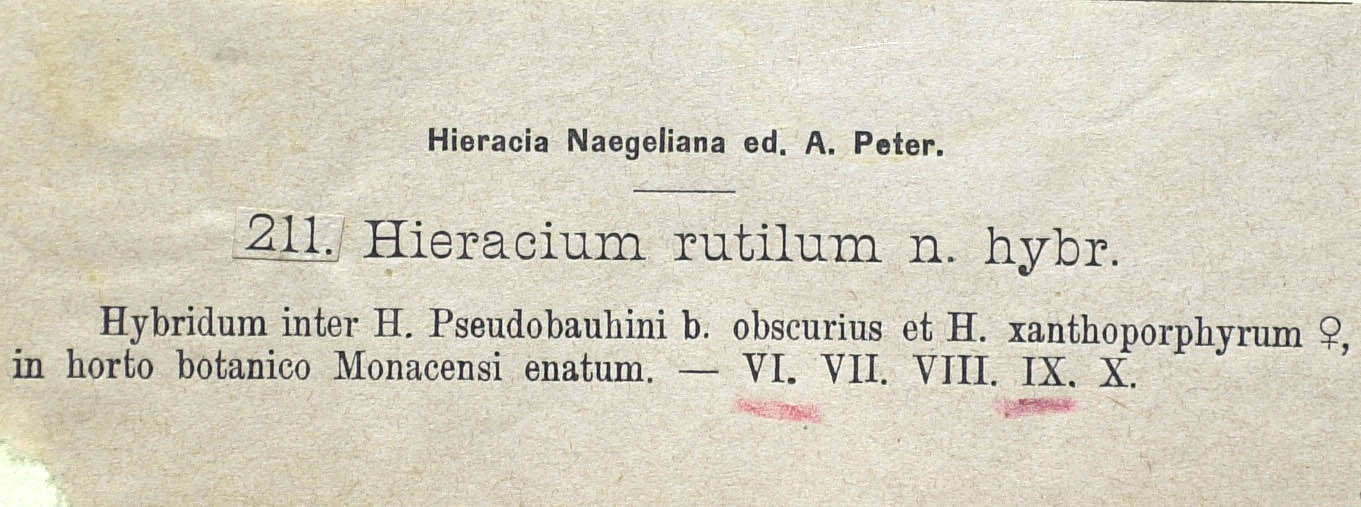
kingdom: Plantae
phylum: Tracheophyta
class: Magnoliopsida
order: Asterales
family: Asteraceae
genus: Hieracium
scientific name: Hieracium rutilum
